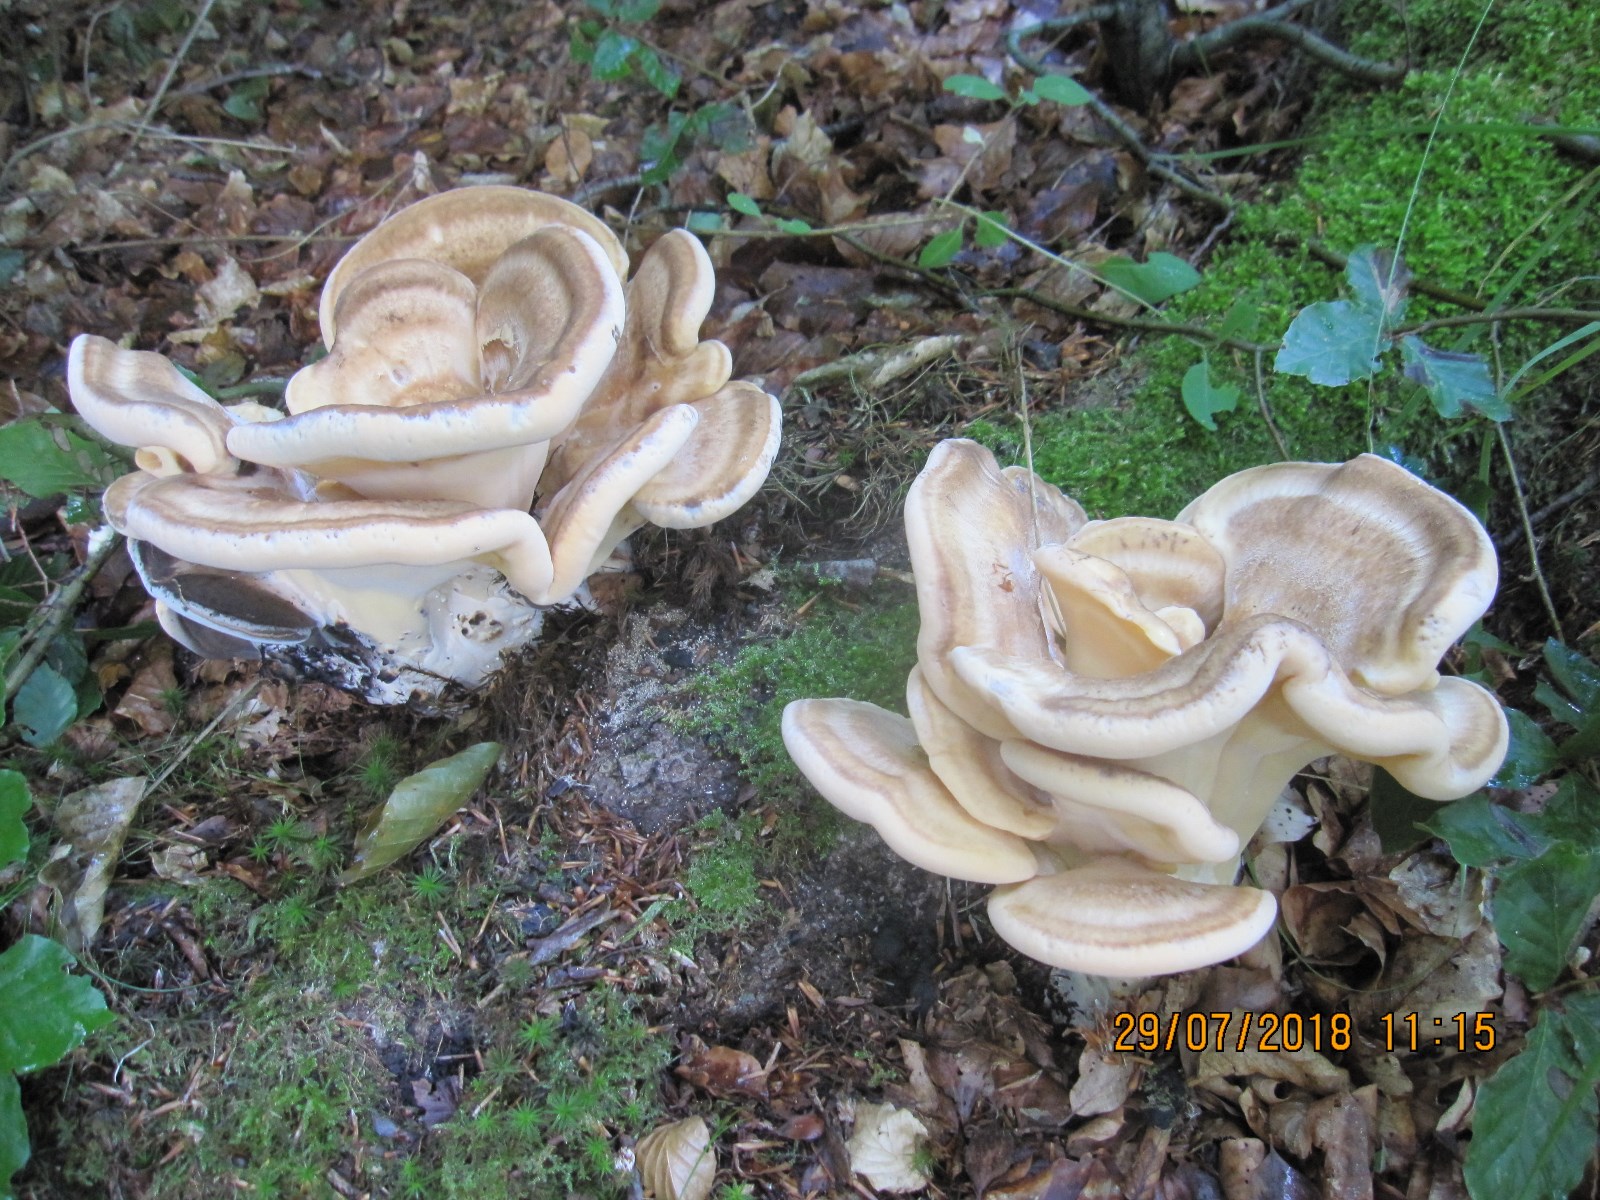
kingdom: Fungi
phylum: Basidiomycota
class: Agaricomycetes
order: Polyporales
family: Meripilaceae
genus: Meripilus
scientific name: Meripilus giganteus
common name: kæmpeporesvamp
